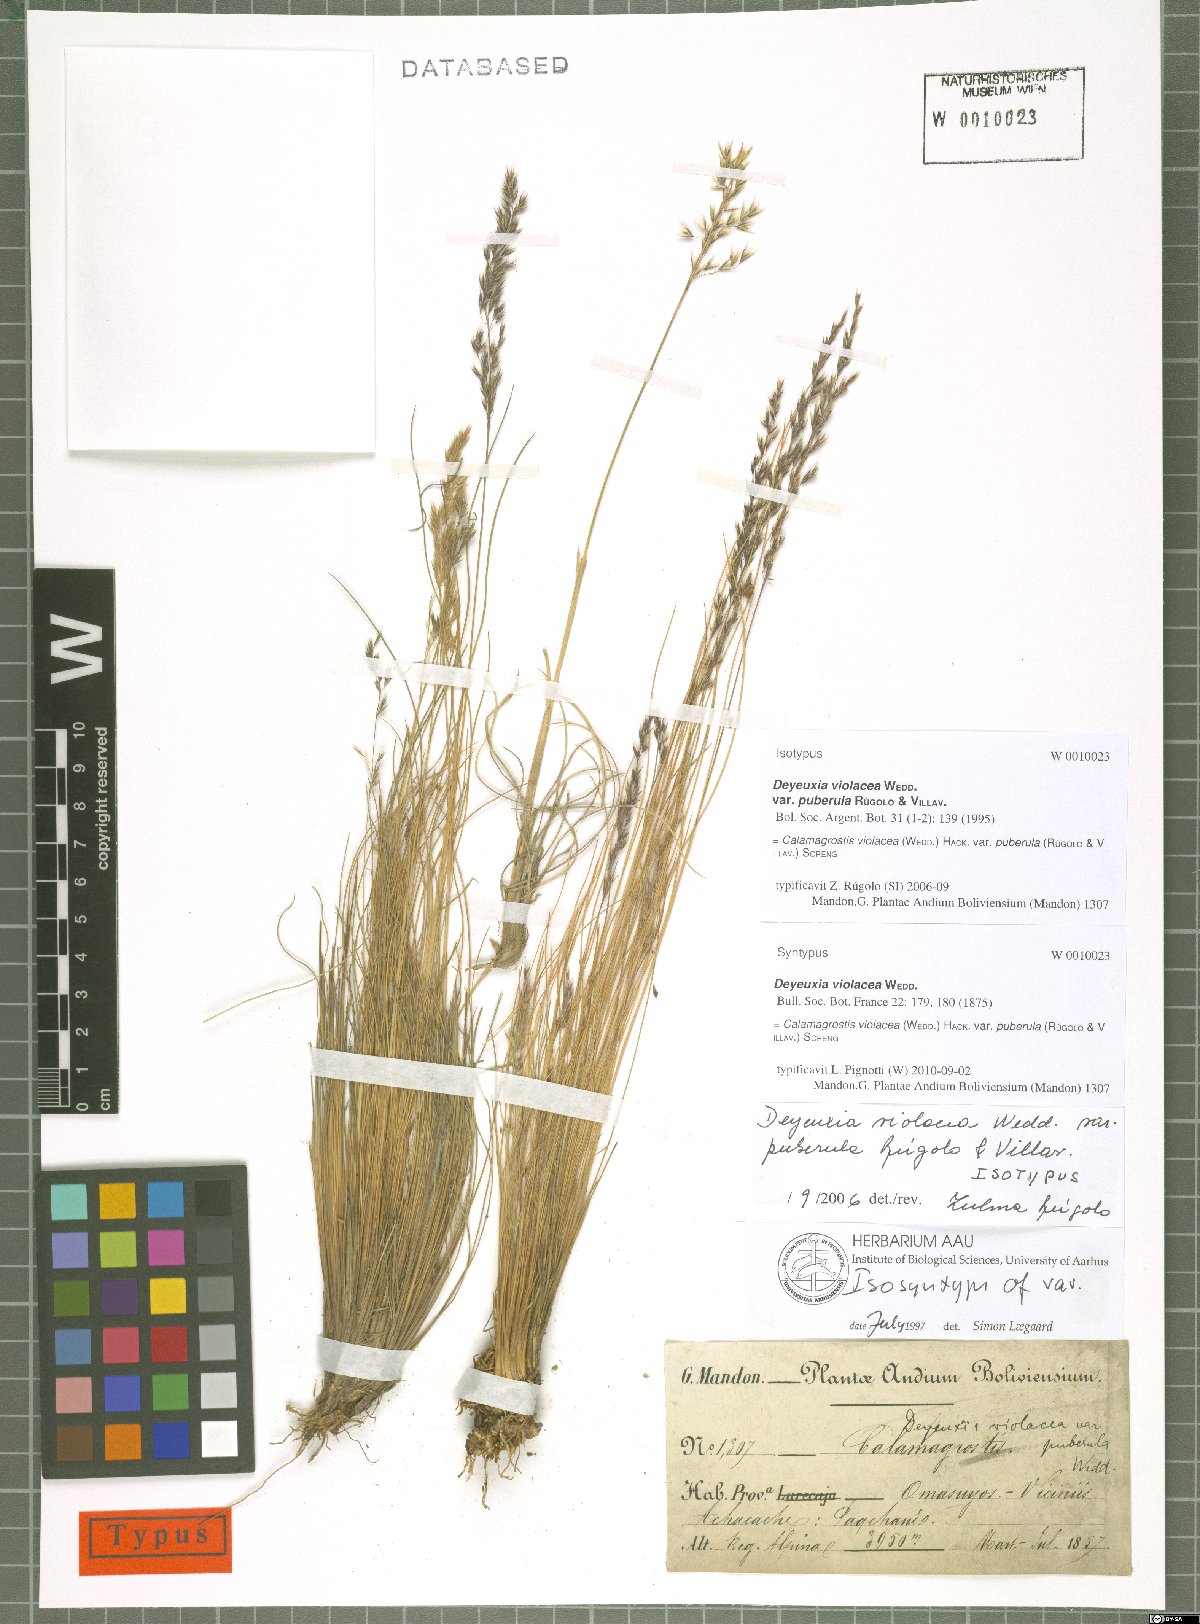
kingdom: Plantae
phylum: Tracheophyta
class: Liliopsida
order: Poales
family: Poaceae
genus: Cinnagrostis
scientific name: Cinnagrostis violacea
